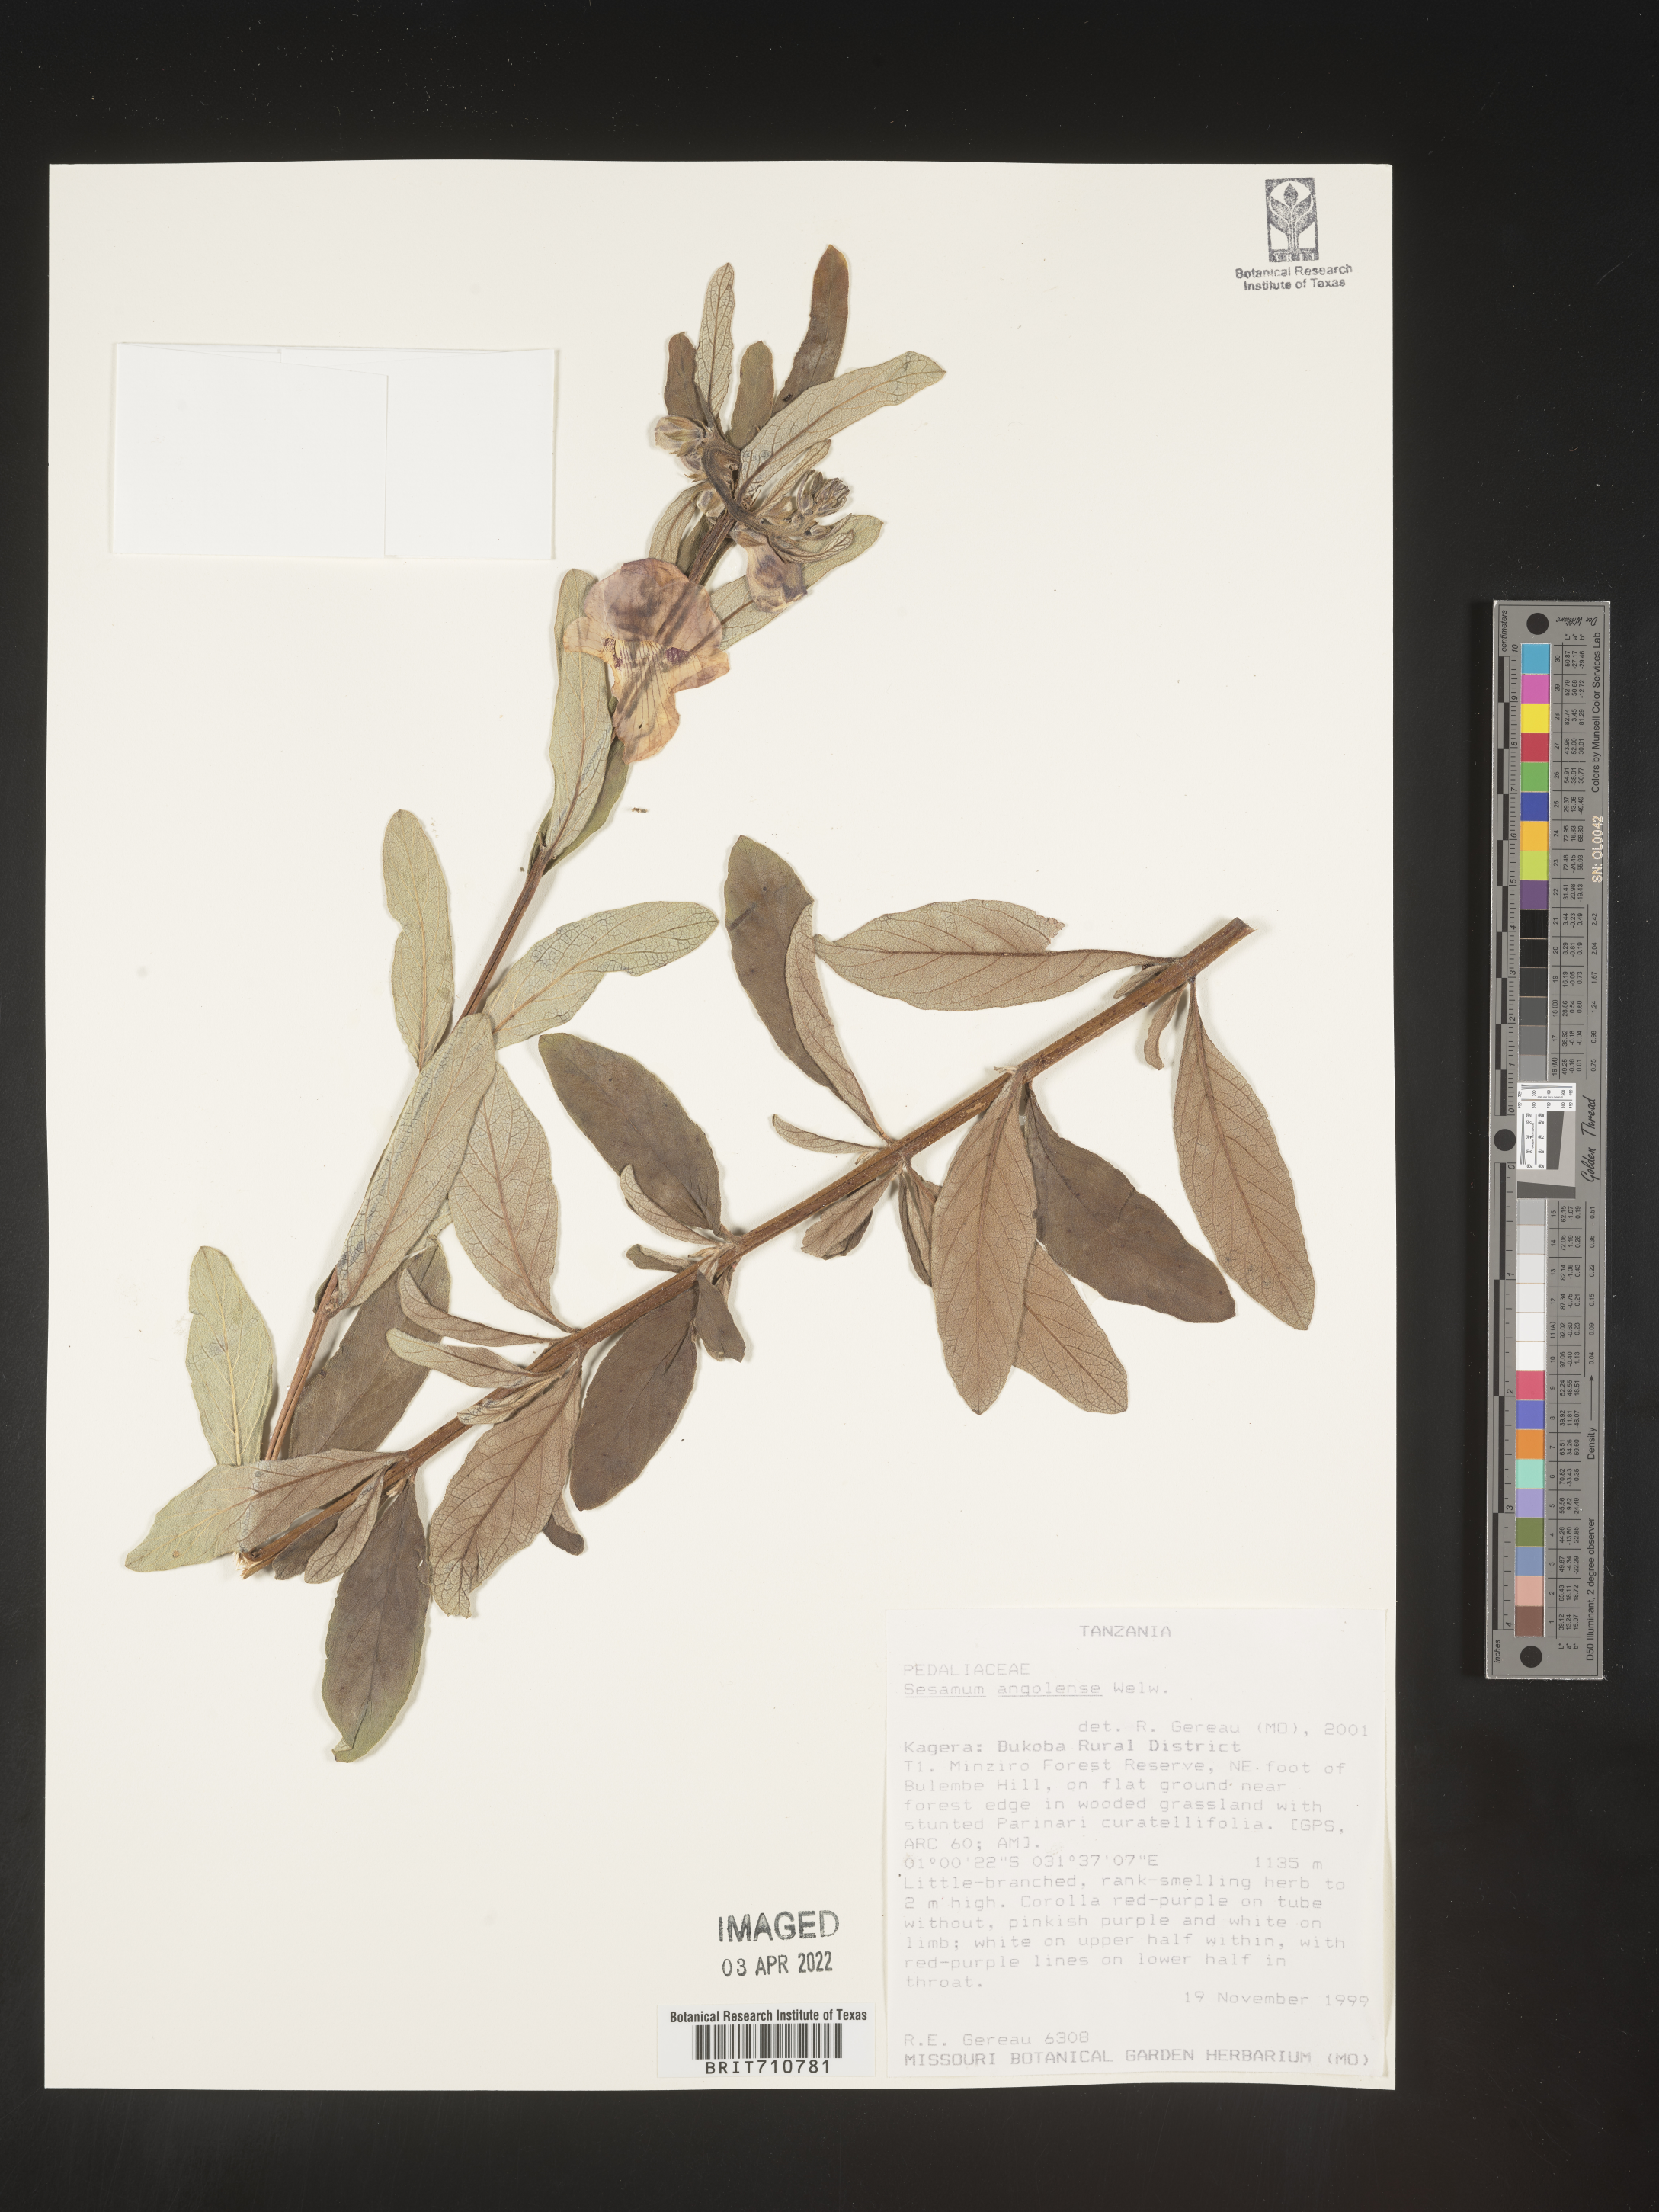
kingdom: Plantae
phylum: Tracheophyta
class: Magnoliopsida
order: Lamiales
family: Pedaliaceae
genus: Sesamum
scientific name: Sesamum
